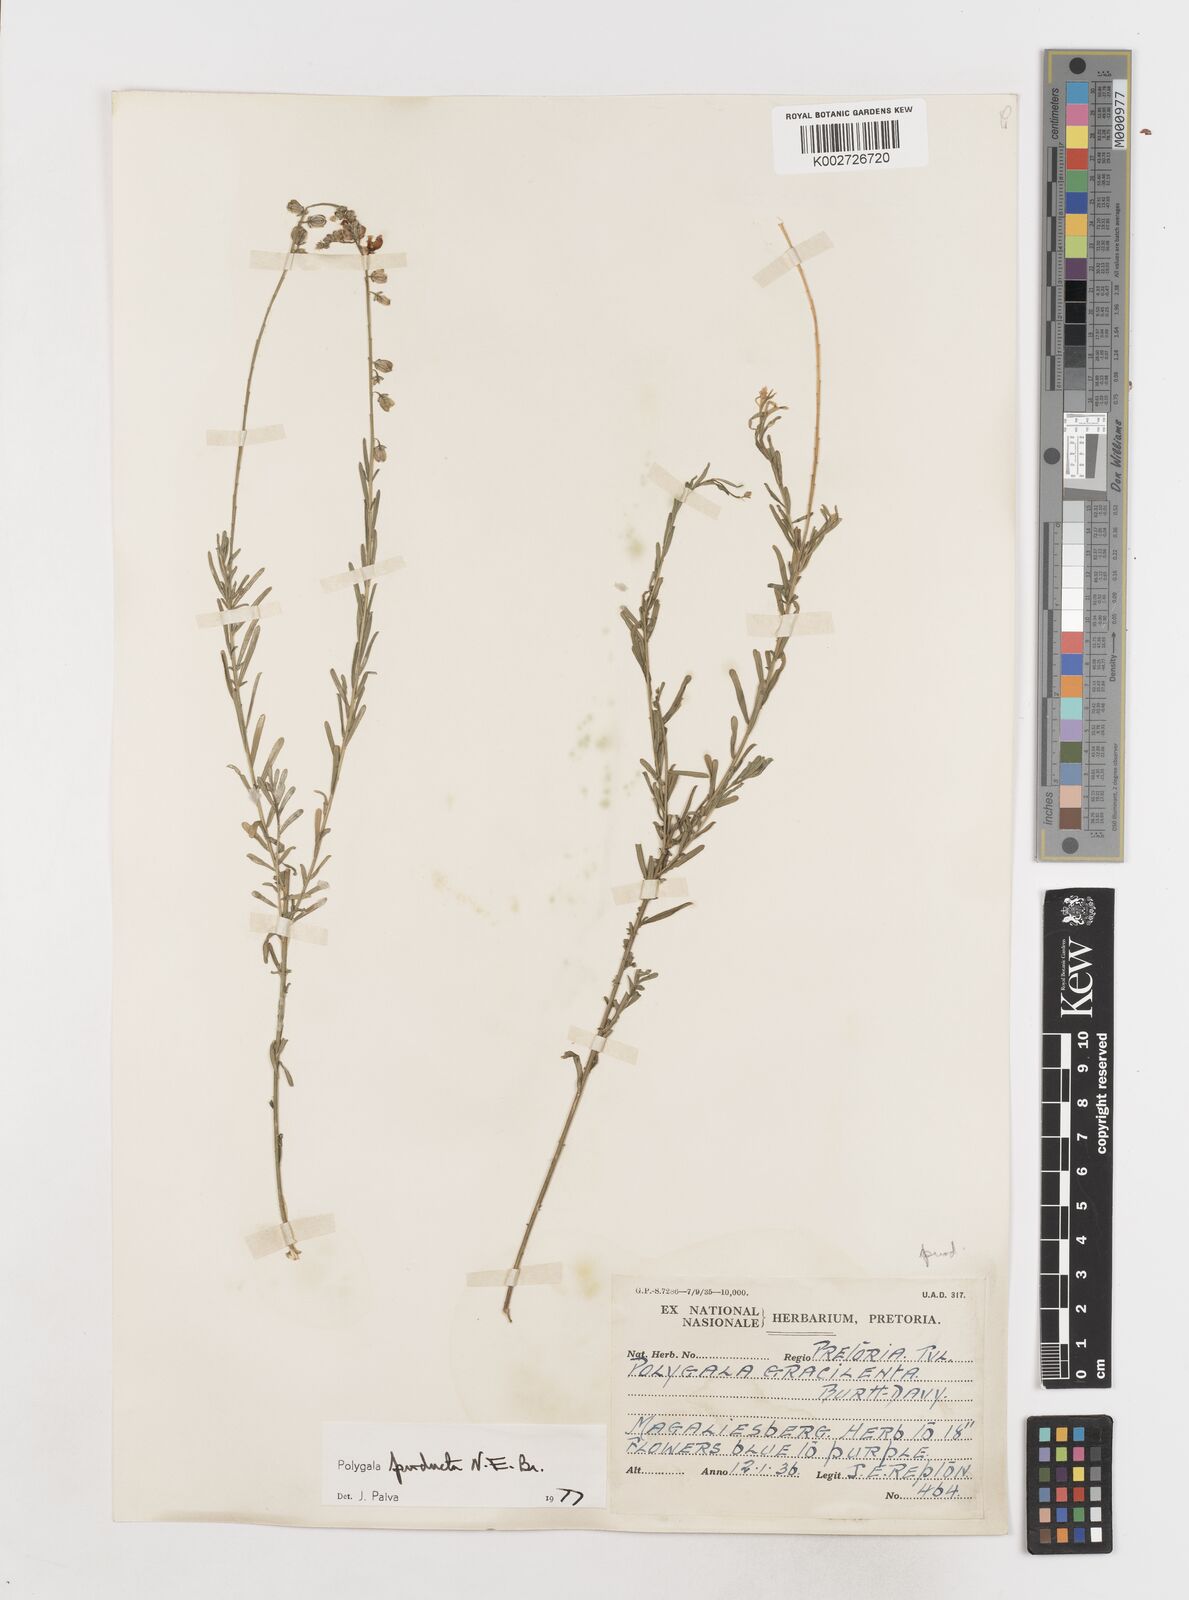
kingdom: Plantae
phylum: Tracheophyta
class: Magnoliopsida
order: Fabales
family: Polygalaceae
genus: Polygala
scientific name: Polygala producta
